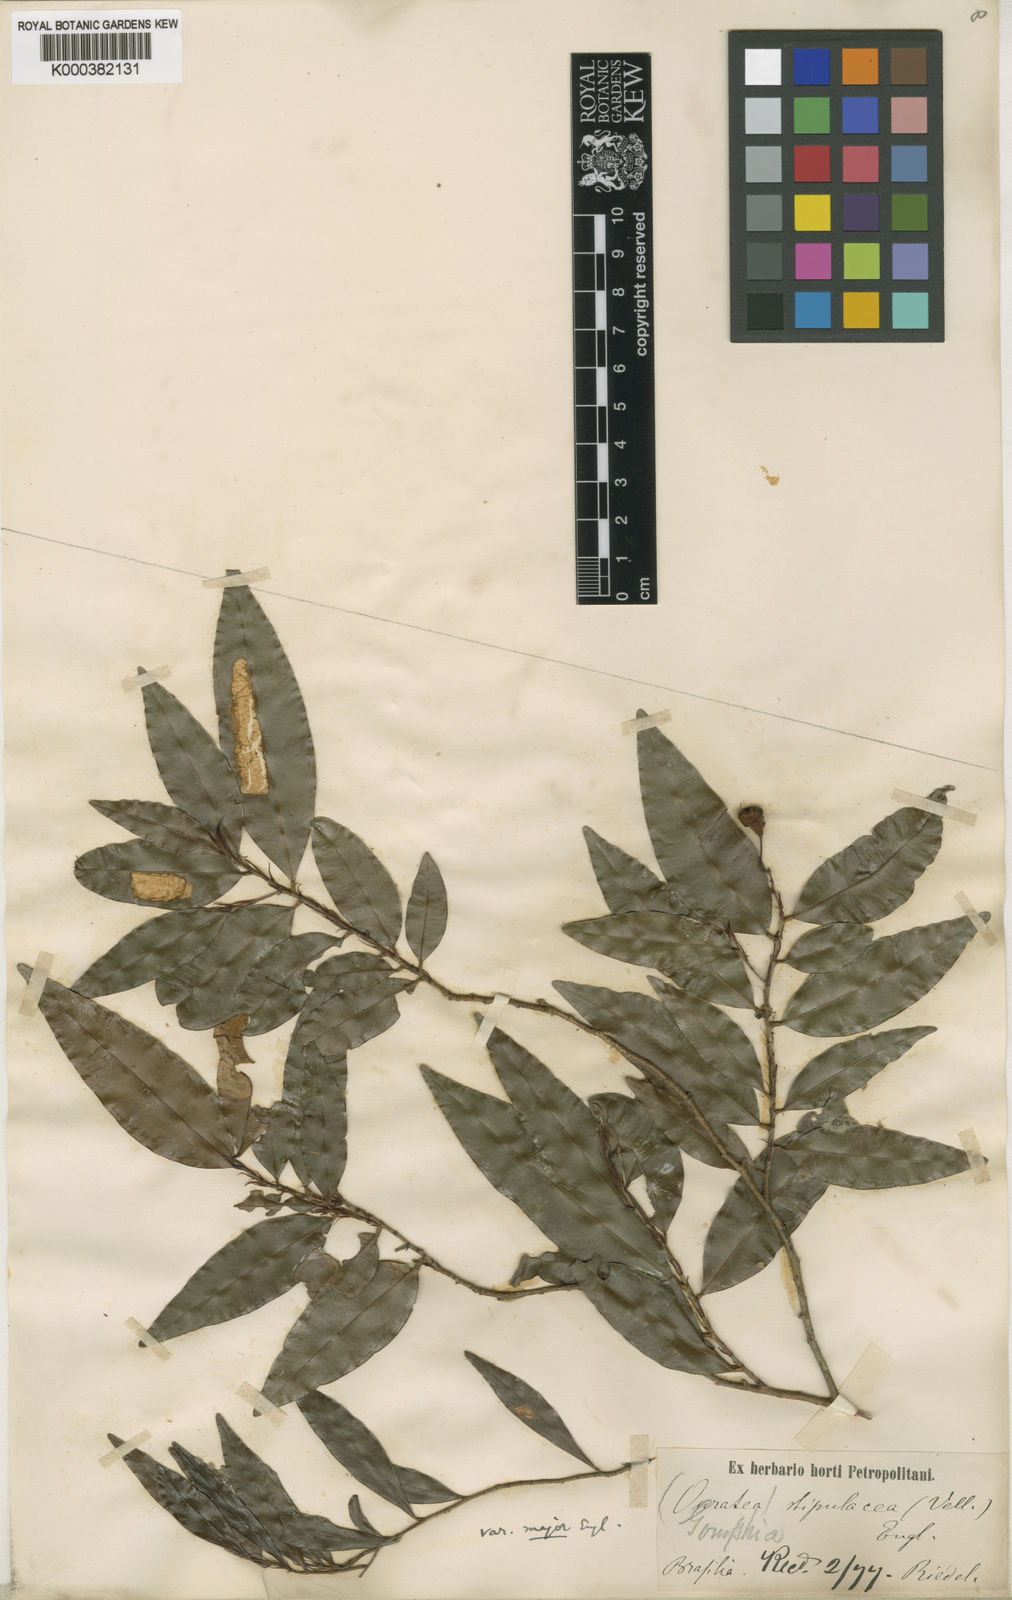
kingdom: Plantae
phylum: Tracheophyta
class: Magnoliopsida
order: Malpighiales
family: Ochnaceae
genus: Ouratea
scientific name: Ouratea vellozoi
